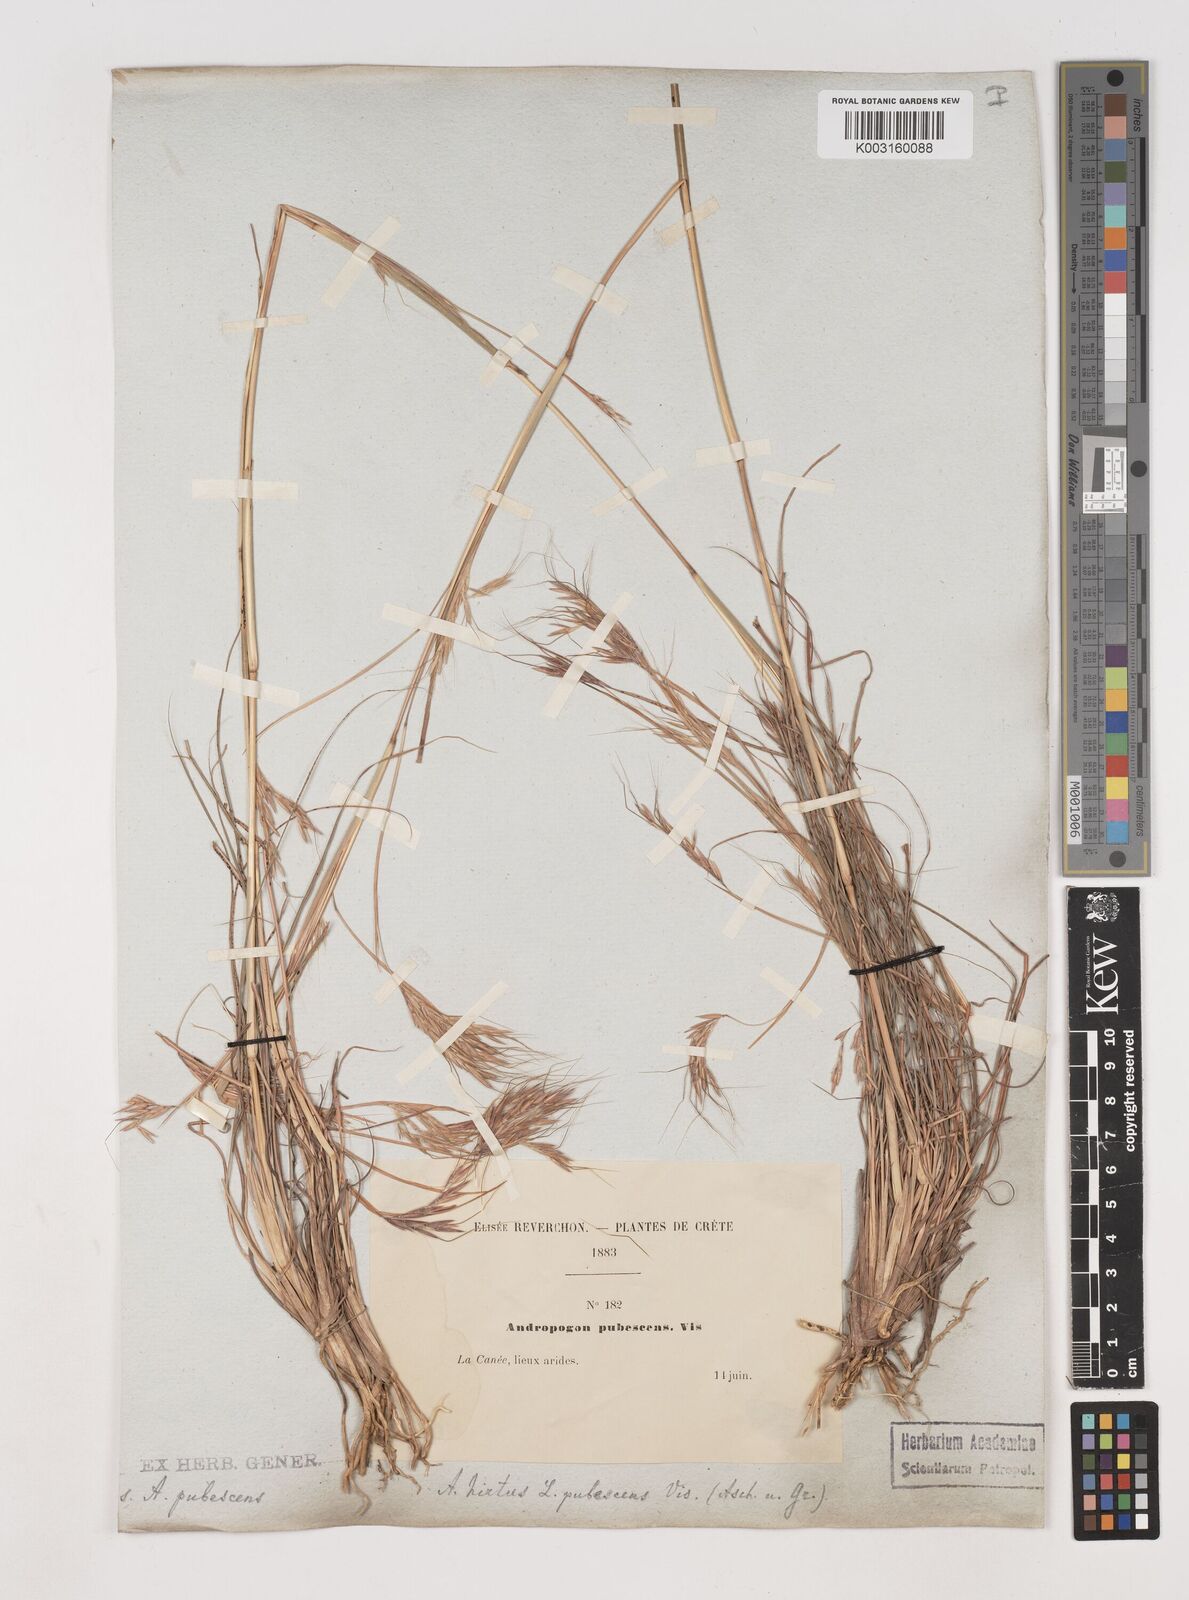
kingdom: Plantae
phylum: Tracheophyta
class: Liliopsida
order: Poales
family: Poaceae
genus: Hyparrhenia
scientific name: Hyparrhenia hirta
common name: Thatching grass
